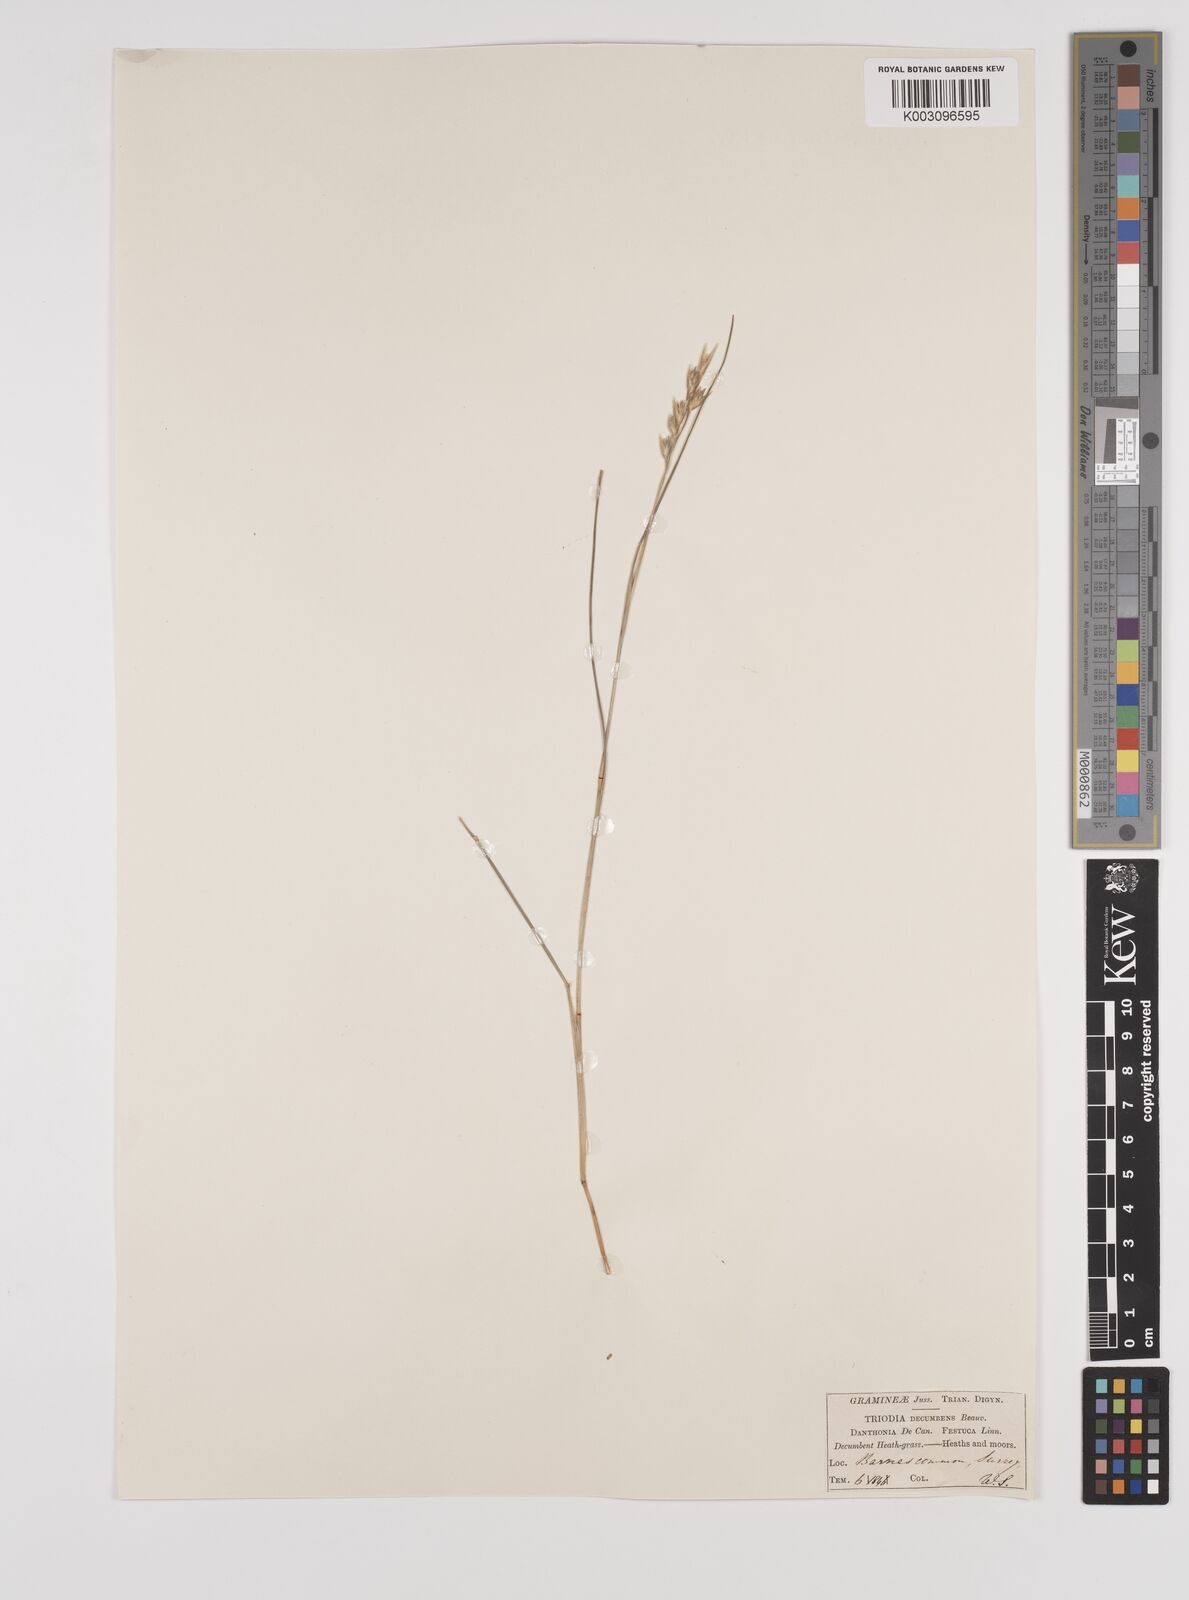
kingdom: Plantae
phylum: Tracheophyta
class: Liliopsida
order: Poales
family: Poaceae
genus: Danthonia
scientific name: Danthonia decumbens
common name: Common heathgrass
